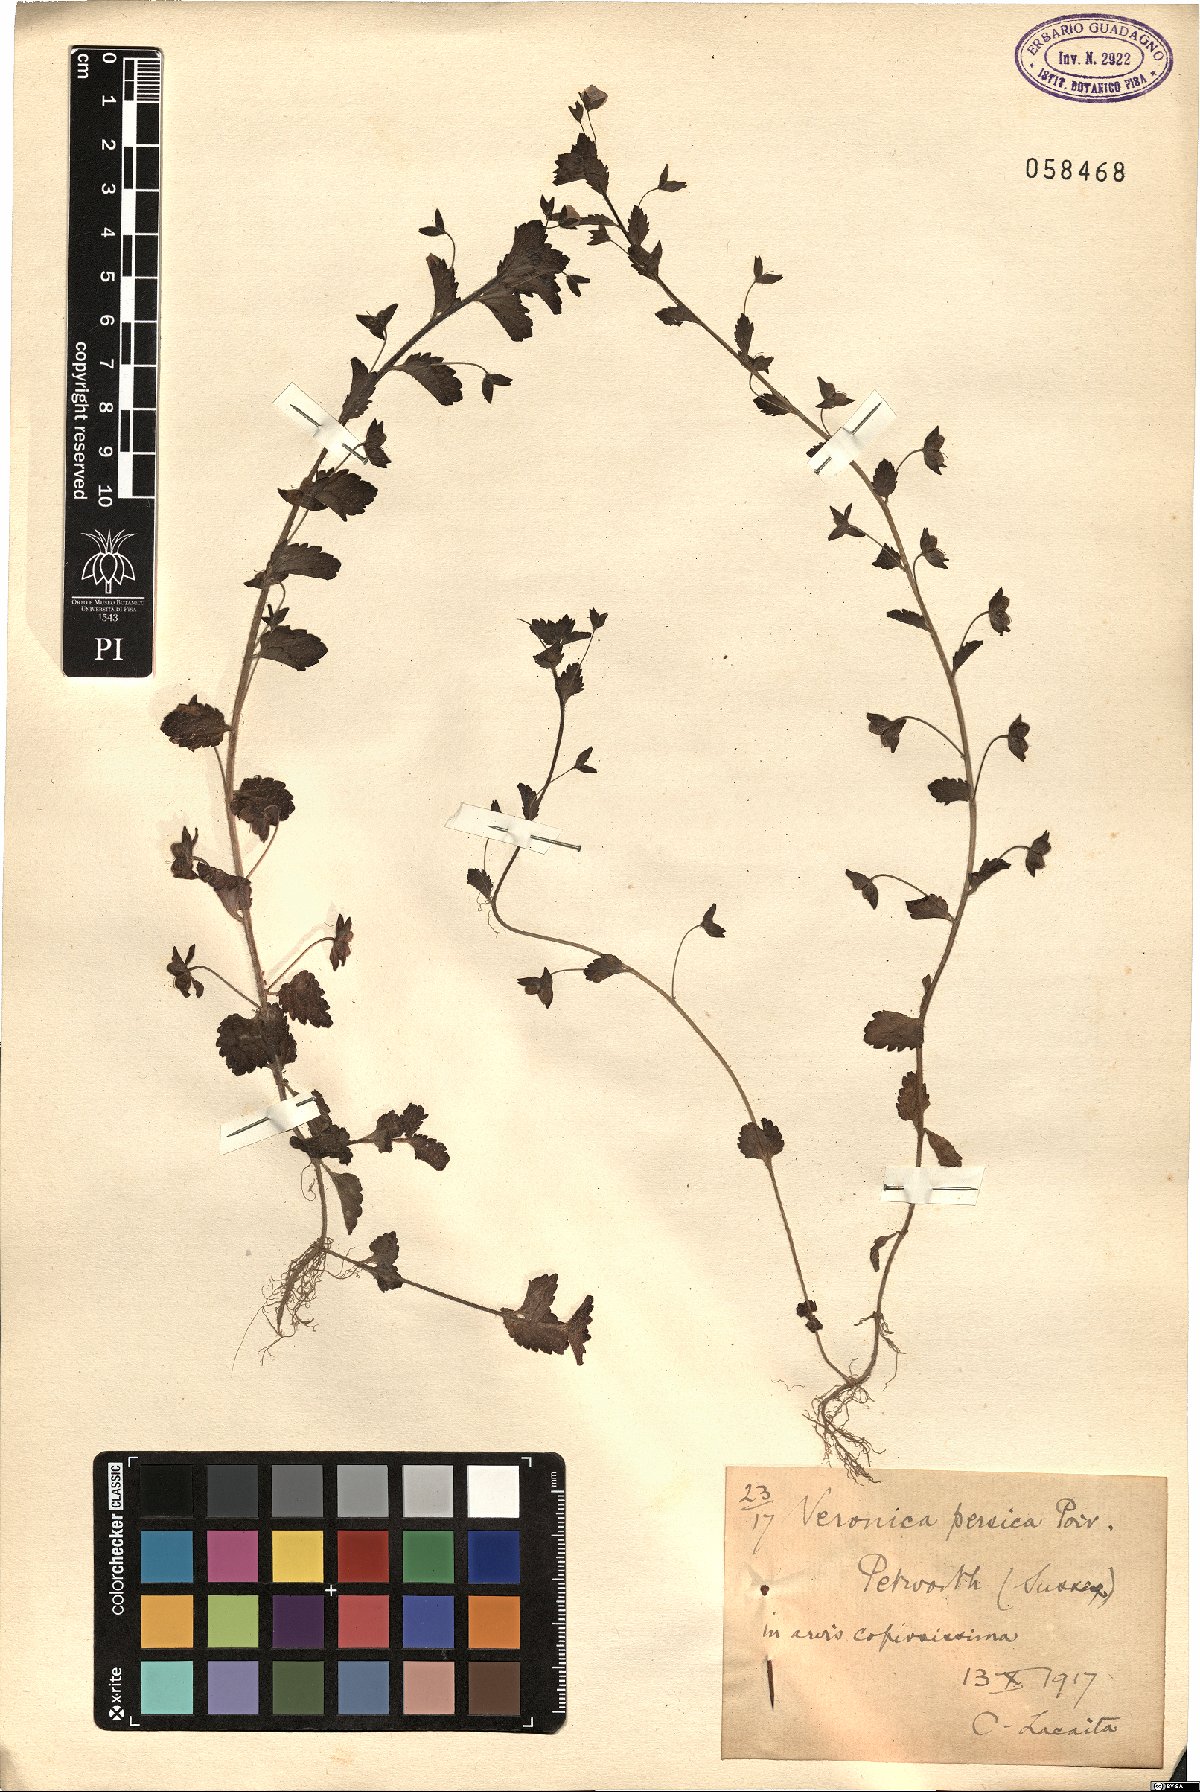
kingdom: Plantae
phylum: Tracheophyta
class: Magnoliopsida
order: Lamiales
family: Plantaginaceae
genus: Veronica
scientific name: Veronica persica
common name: Common field-speedwell
